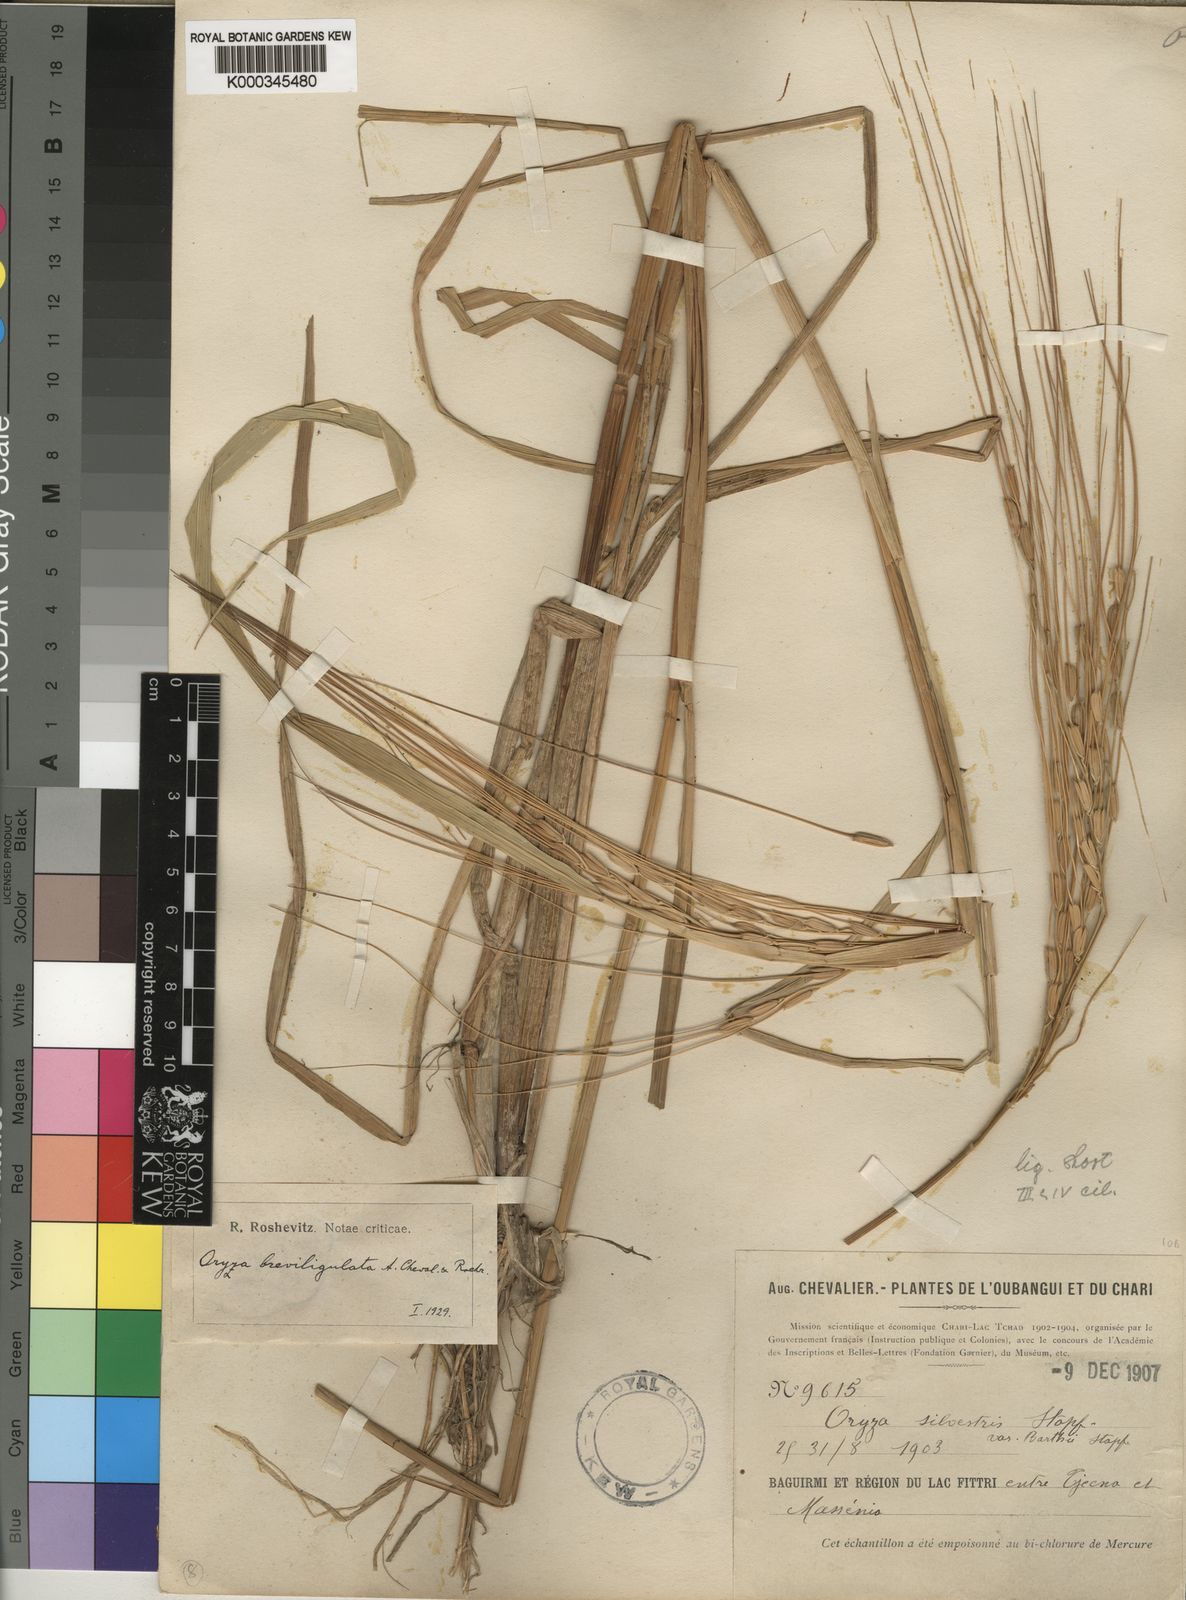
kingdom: Plantae
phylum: Tracheophyta
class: Liliopsida
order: Poales
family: Poaceae
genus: Oryza
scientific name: Oryza barthii
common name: Wild rice
